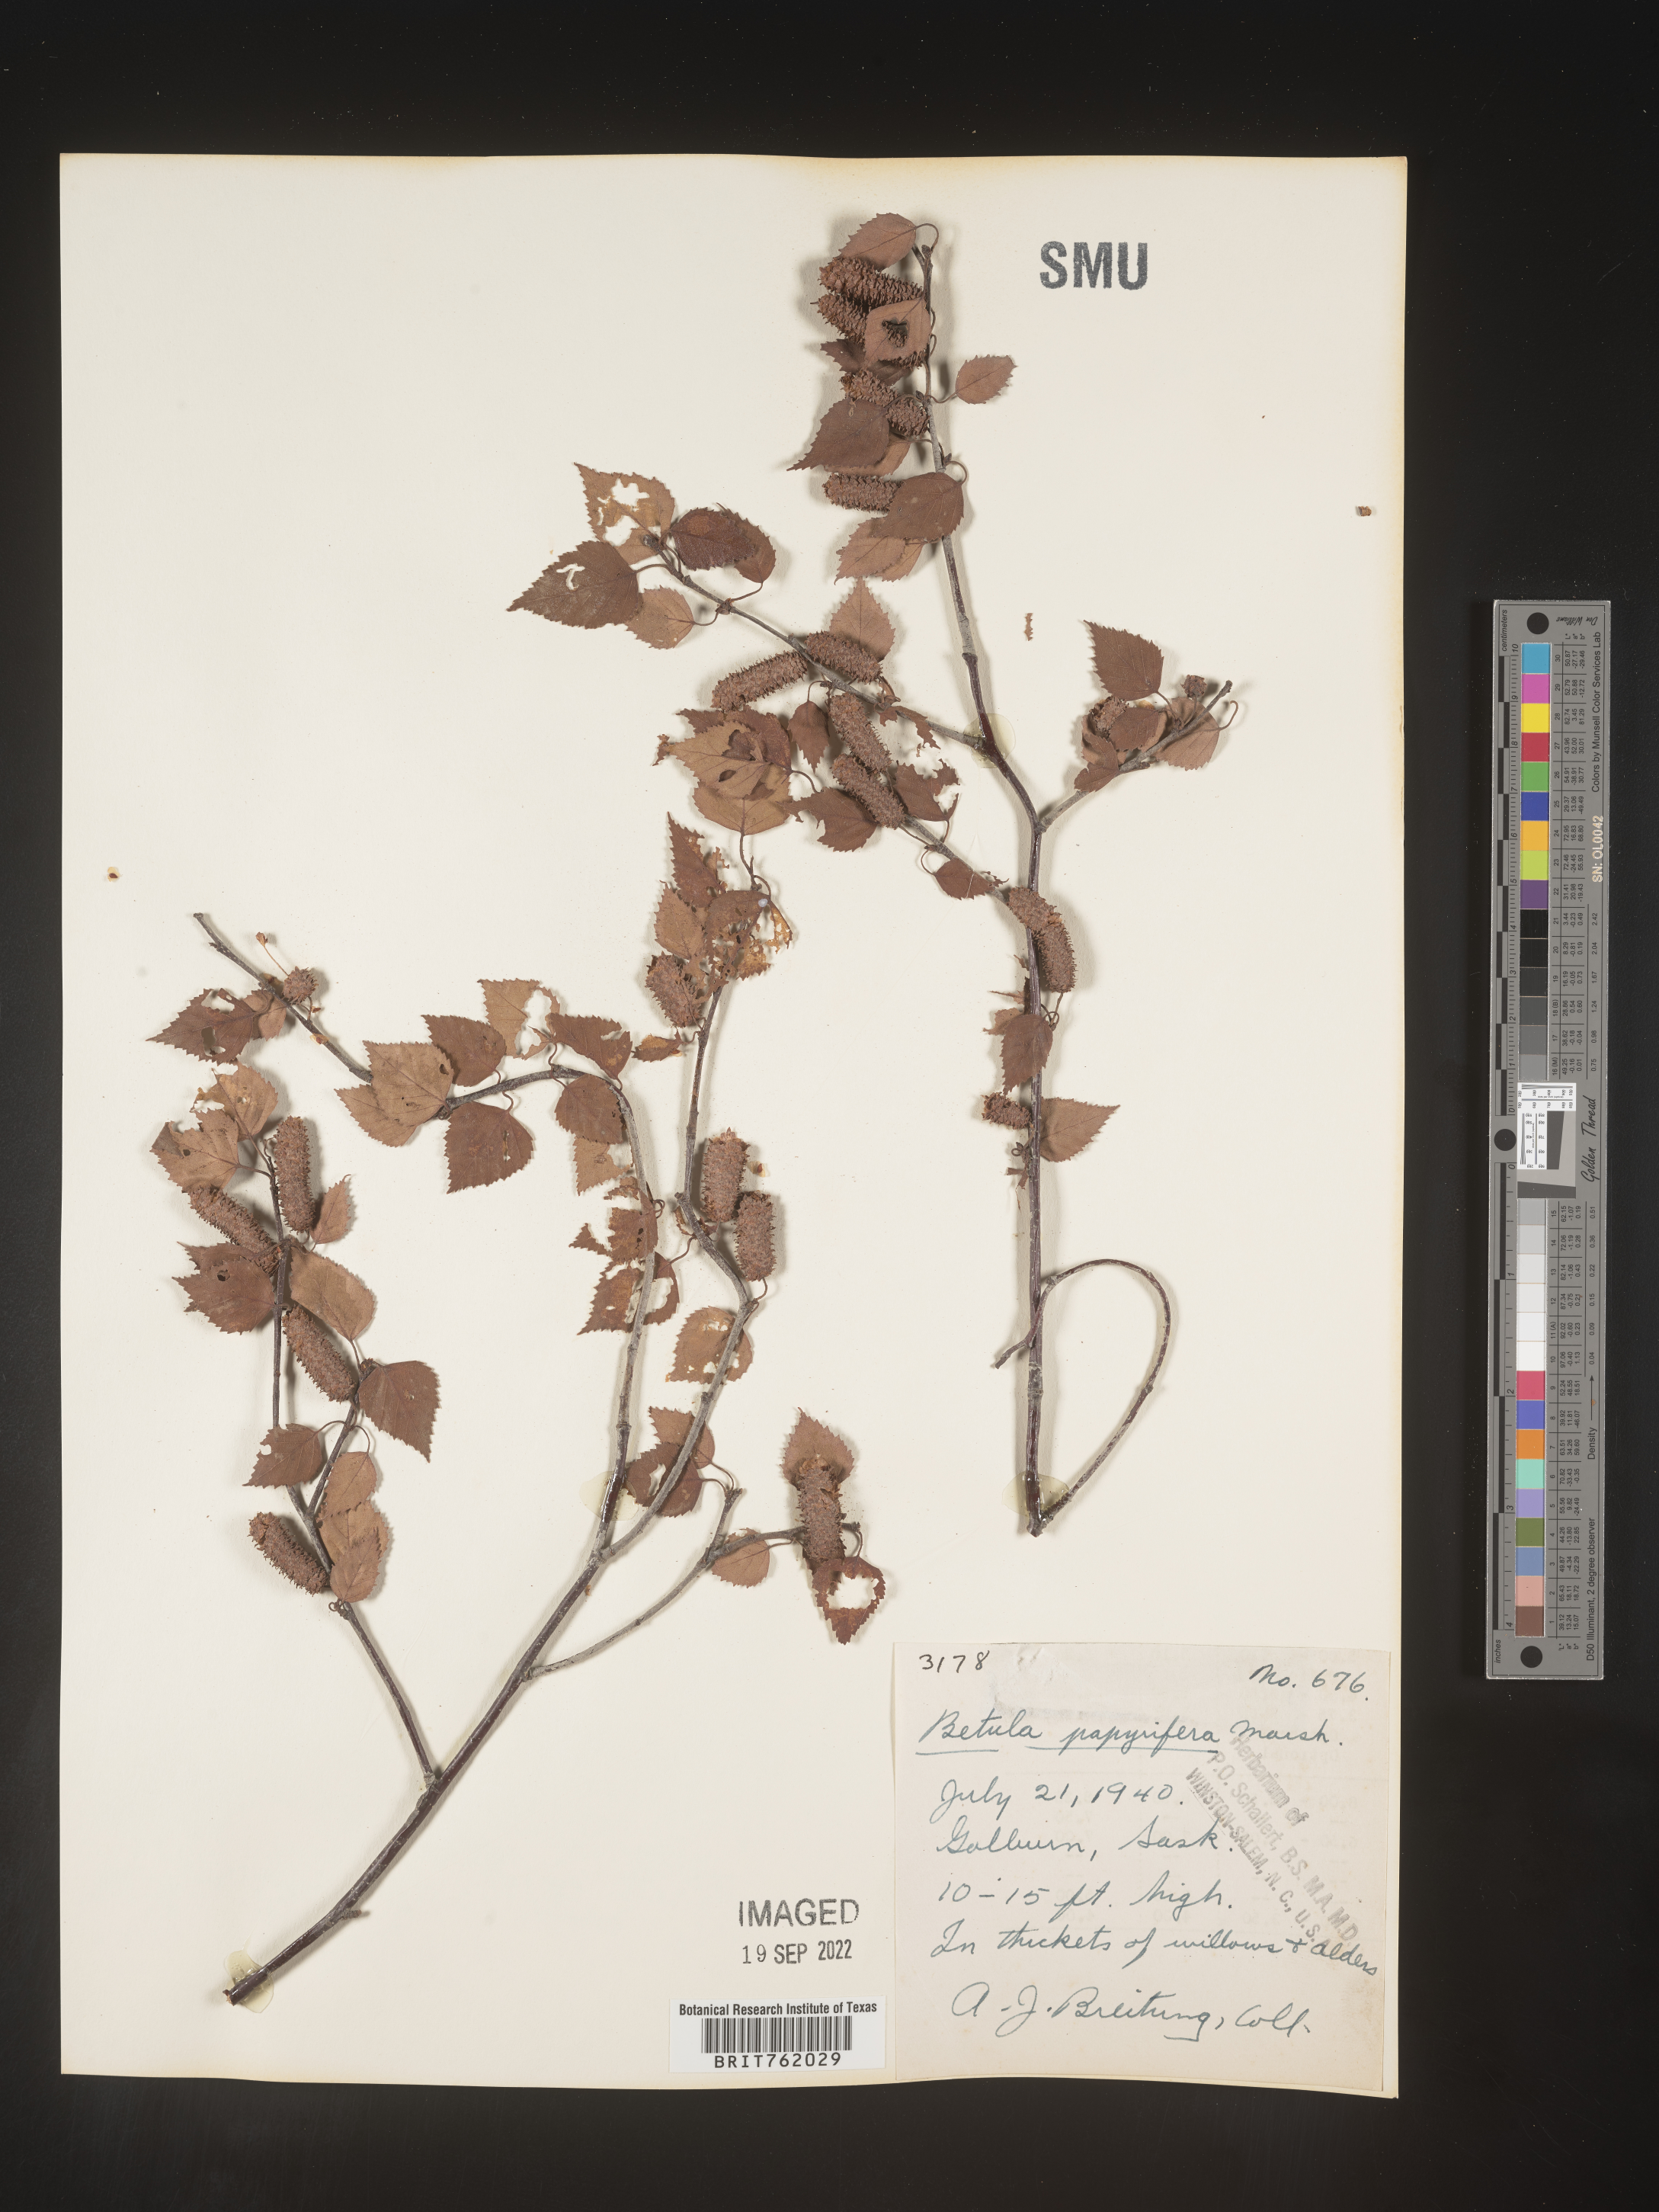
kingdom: Plantae
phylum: Tracheophyta
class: Magnoliopsida
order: Fagales
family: Betulaceae
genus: Betula
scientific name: Betula papyrifera
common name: Paper birch
